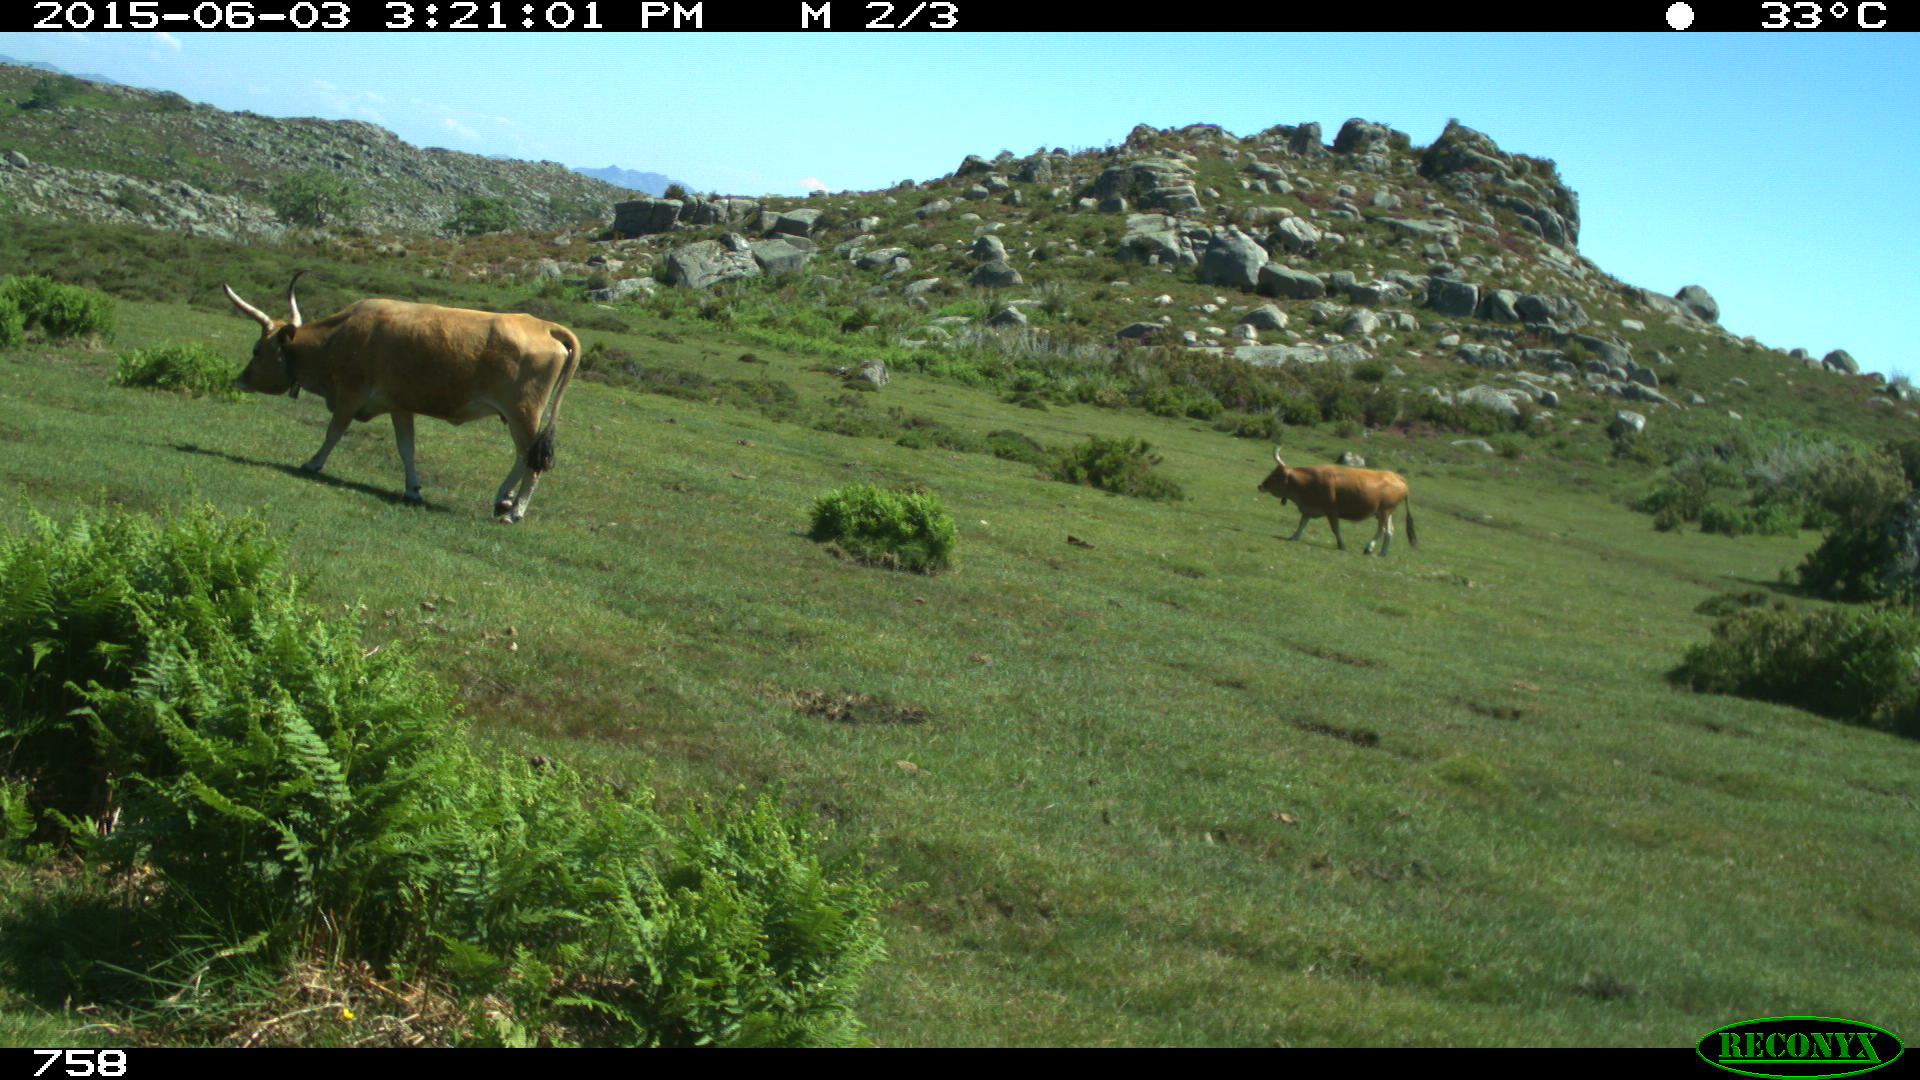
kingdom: Animalia
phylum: Chordata
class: Mammalia
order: Artiodactyla
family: Bovidae
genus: Bos
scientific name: Bos taurus
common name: Domesticated cattle
